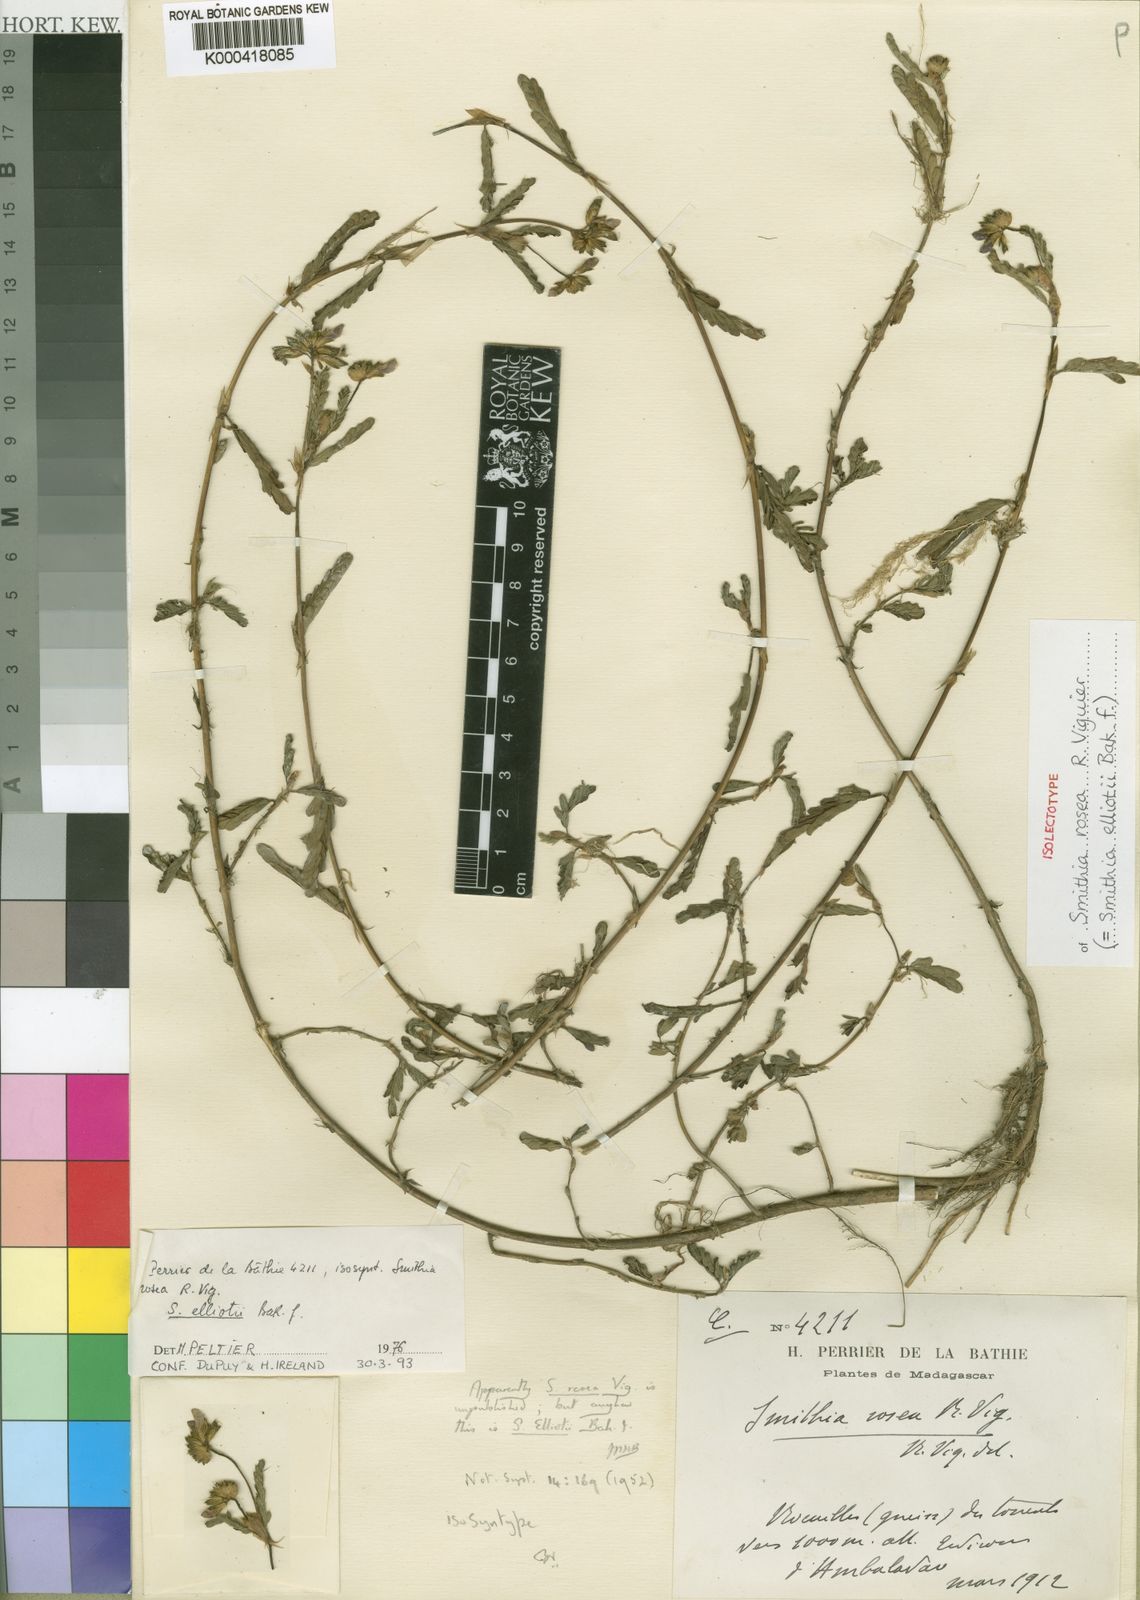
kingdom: Plantae
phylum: Tracheophyta
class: Magnoliopsida
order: Fabales
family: Fabaceae
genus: Smithia
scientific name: Smithia elliotii
